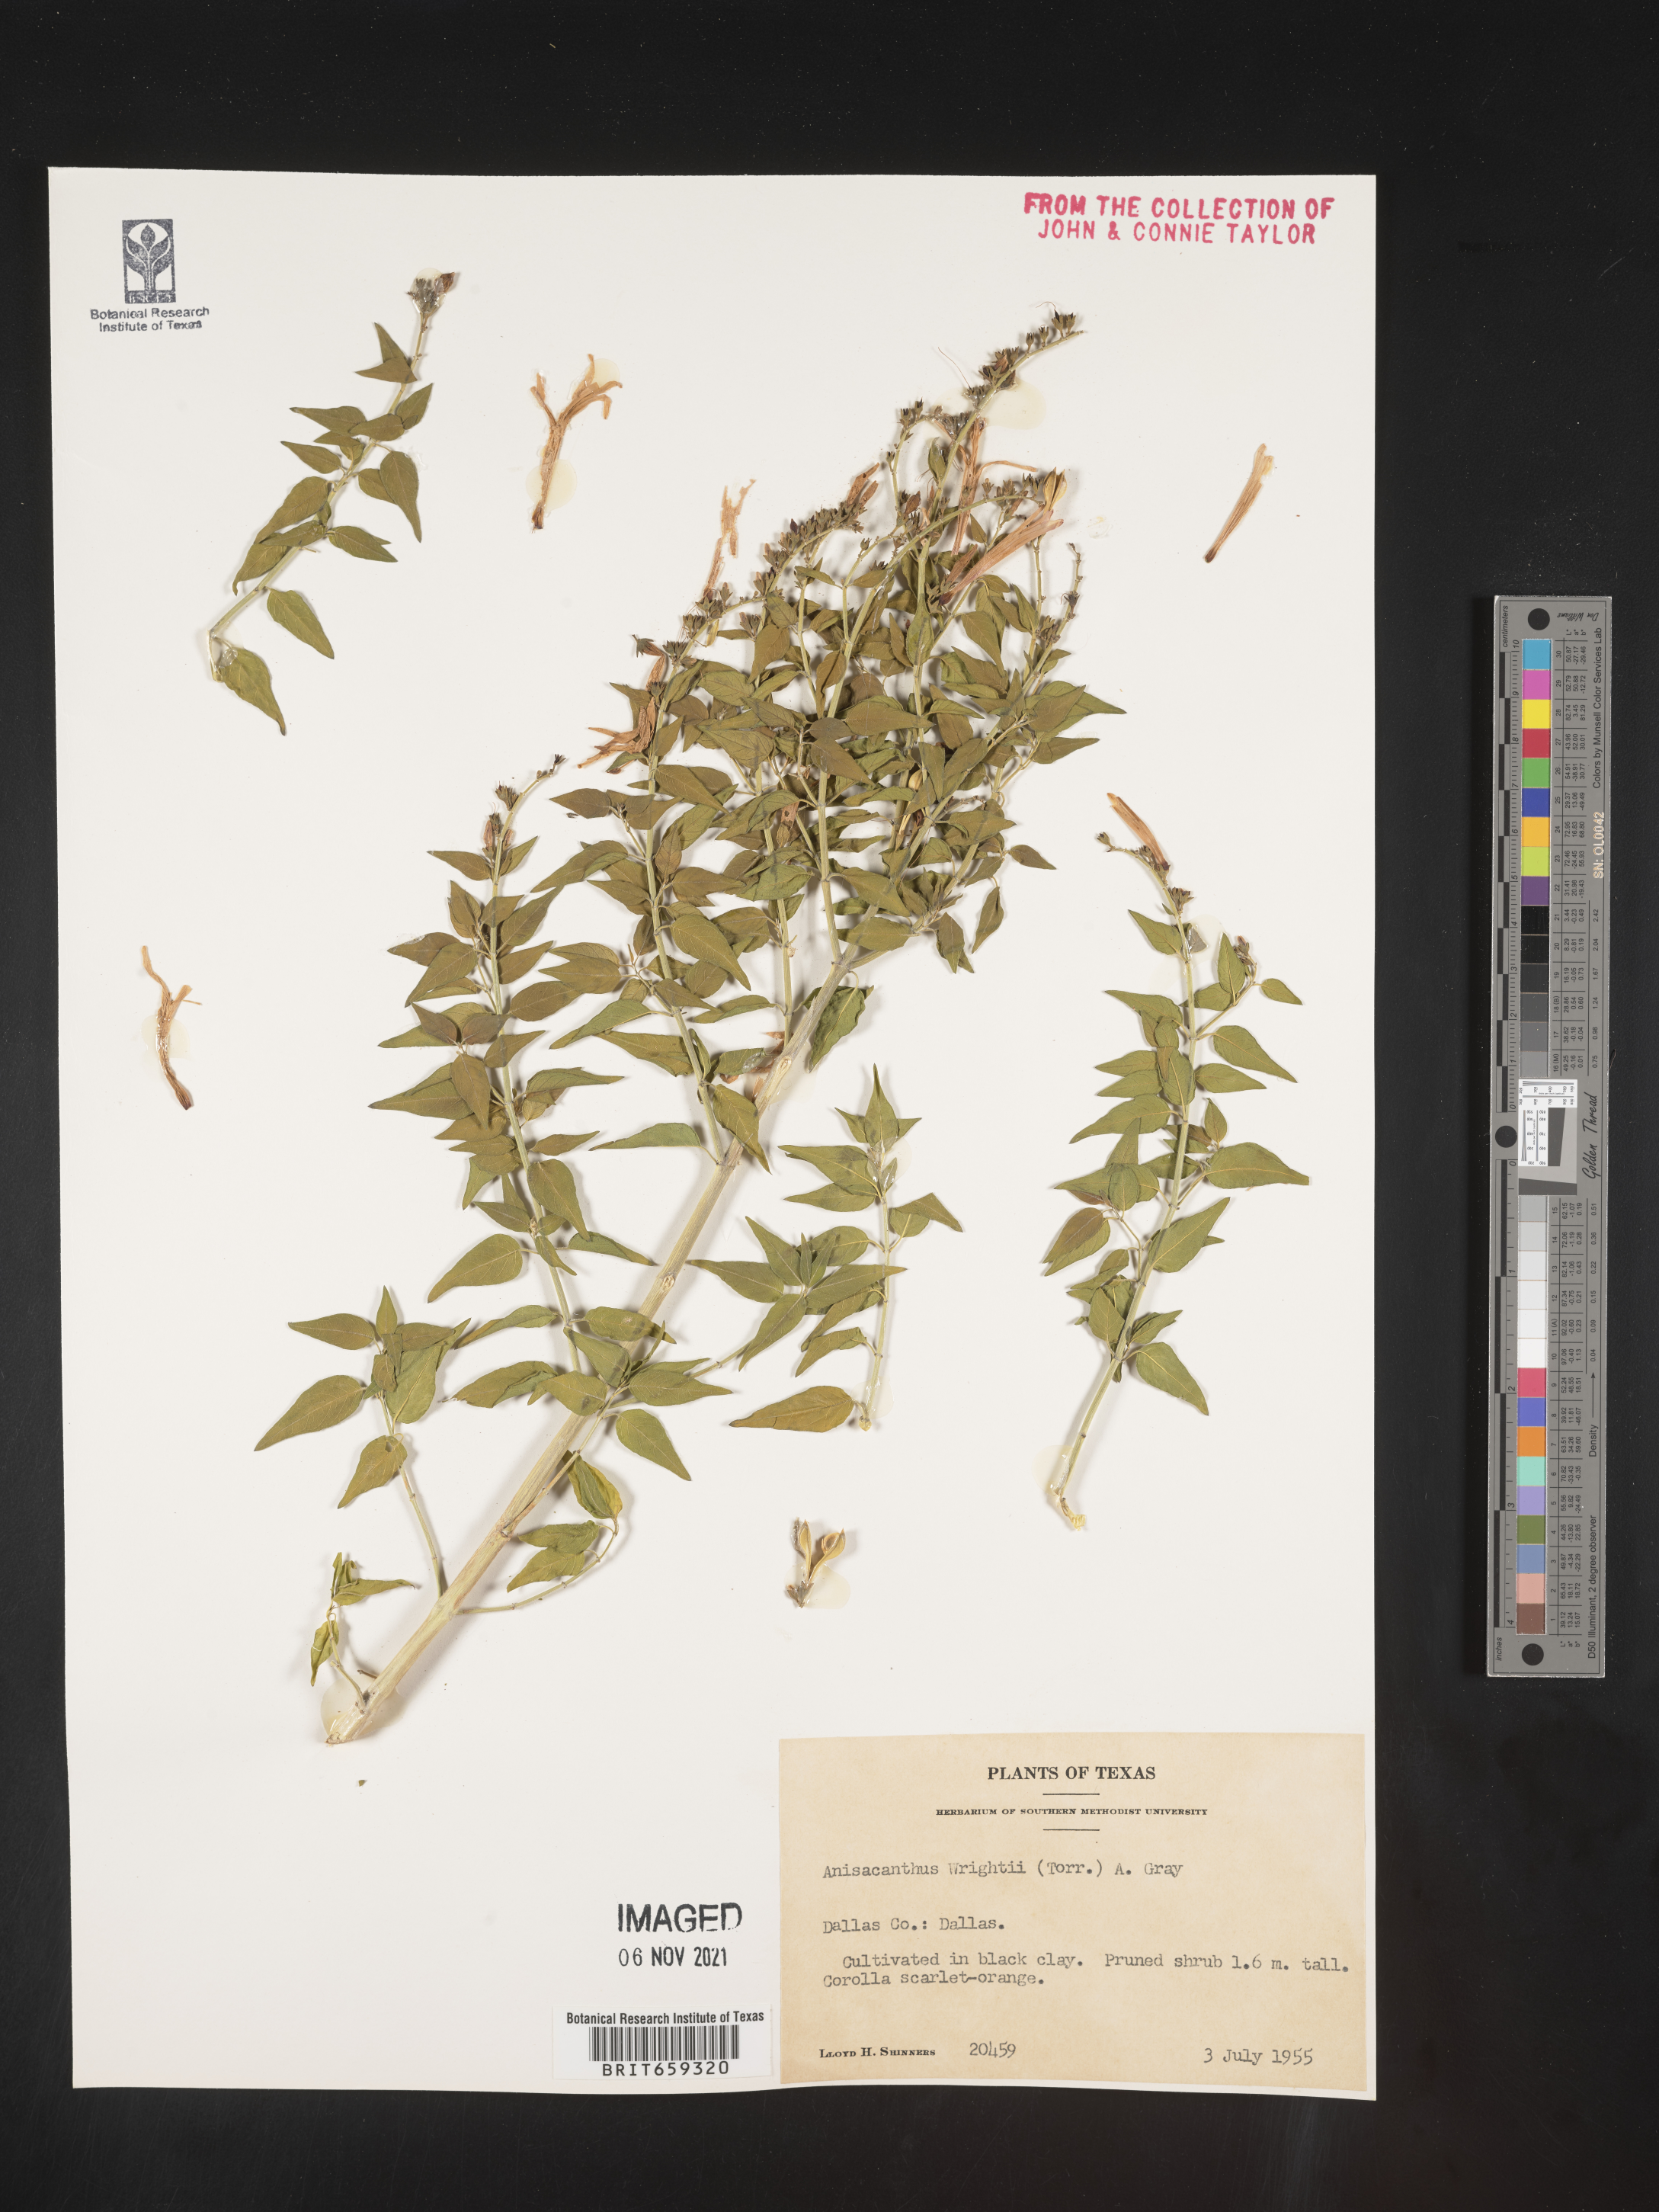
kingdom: Plantae
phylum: Tracheophyta
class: Magnoliopsida
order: Lamiales
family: Acanthaceae
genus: Anisacanthus
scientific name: Anisacanthus
